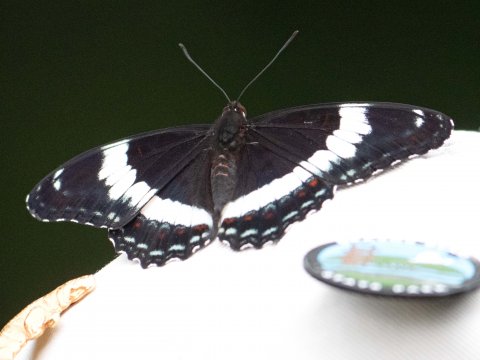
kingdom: Animalia
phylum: Arthropoda
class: Insecta
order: Lepidoptera
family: Nymphalidae
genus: Limenitis
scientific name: Limenitis arthemis
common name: Red-spotted Admiral
